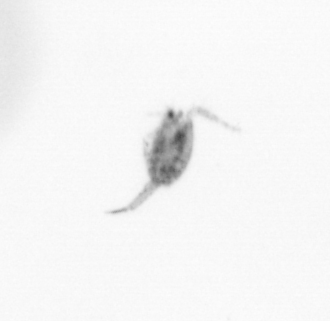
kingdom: Animalia
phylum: Arthropoda
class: Copepoda
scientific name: Copepoda
